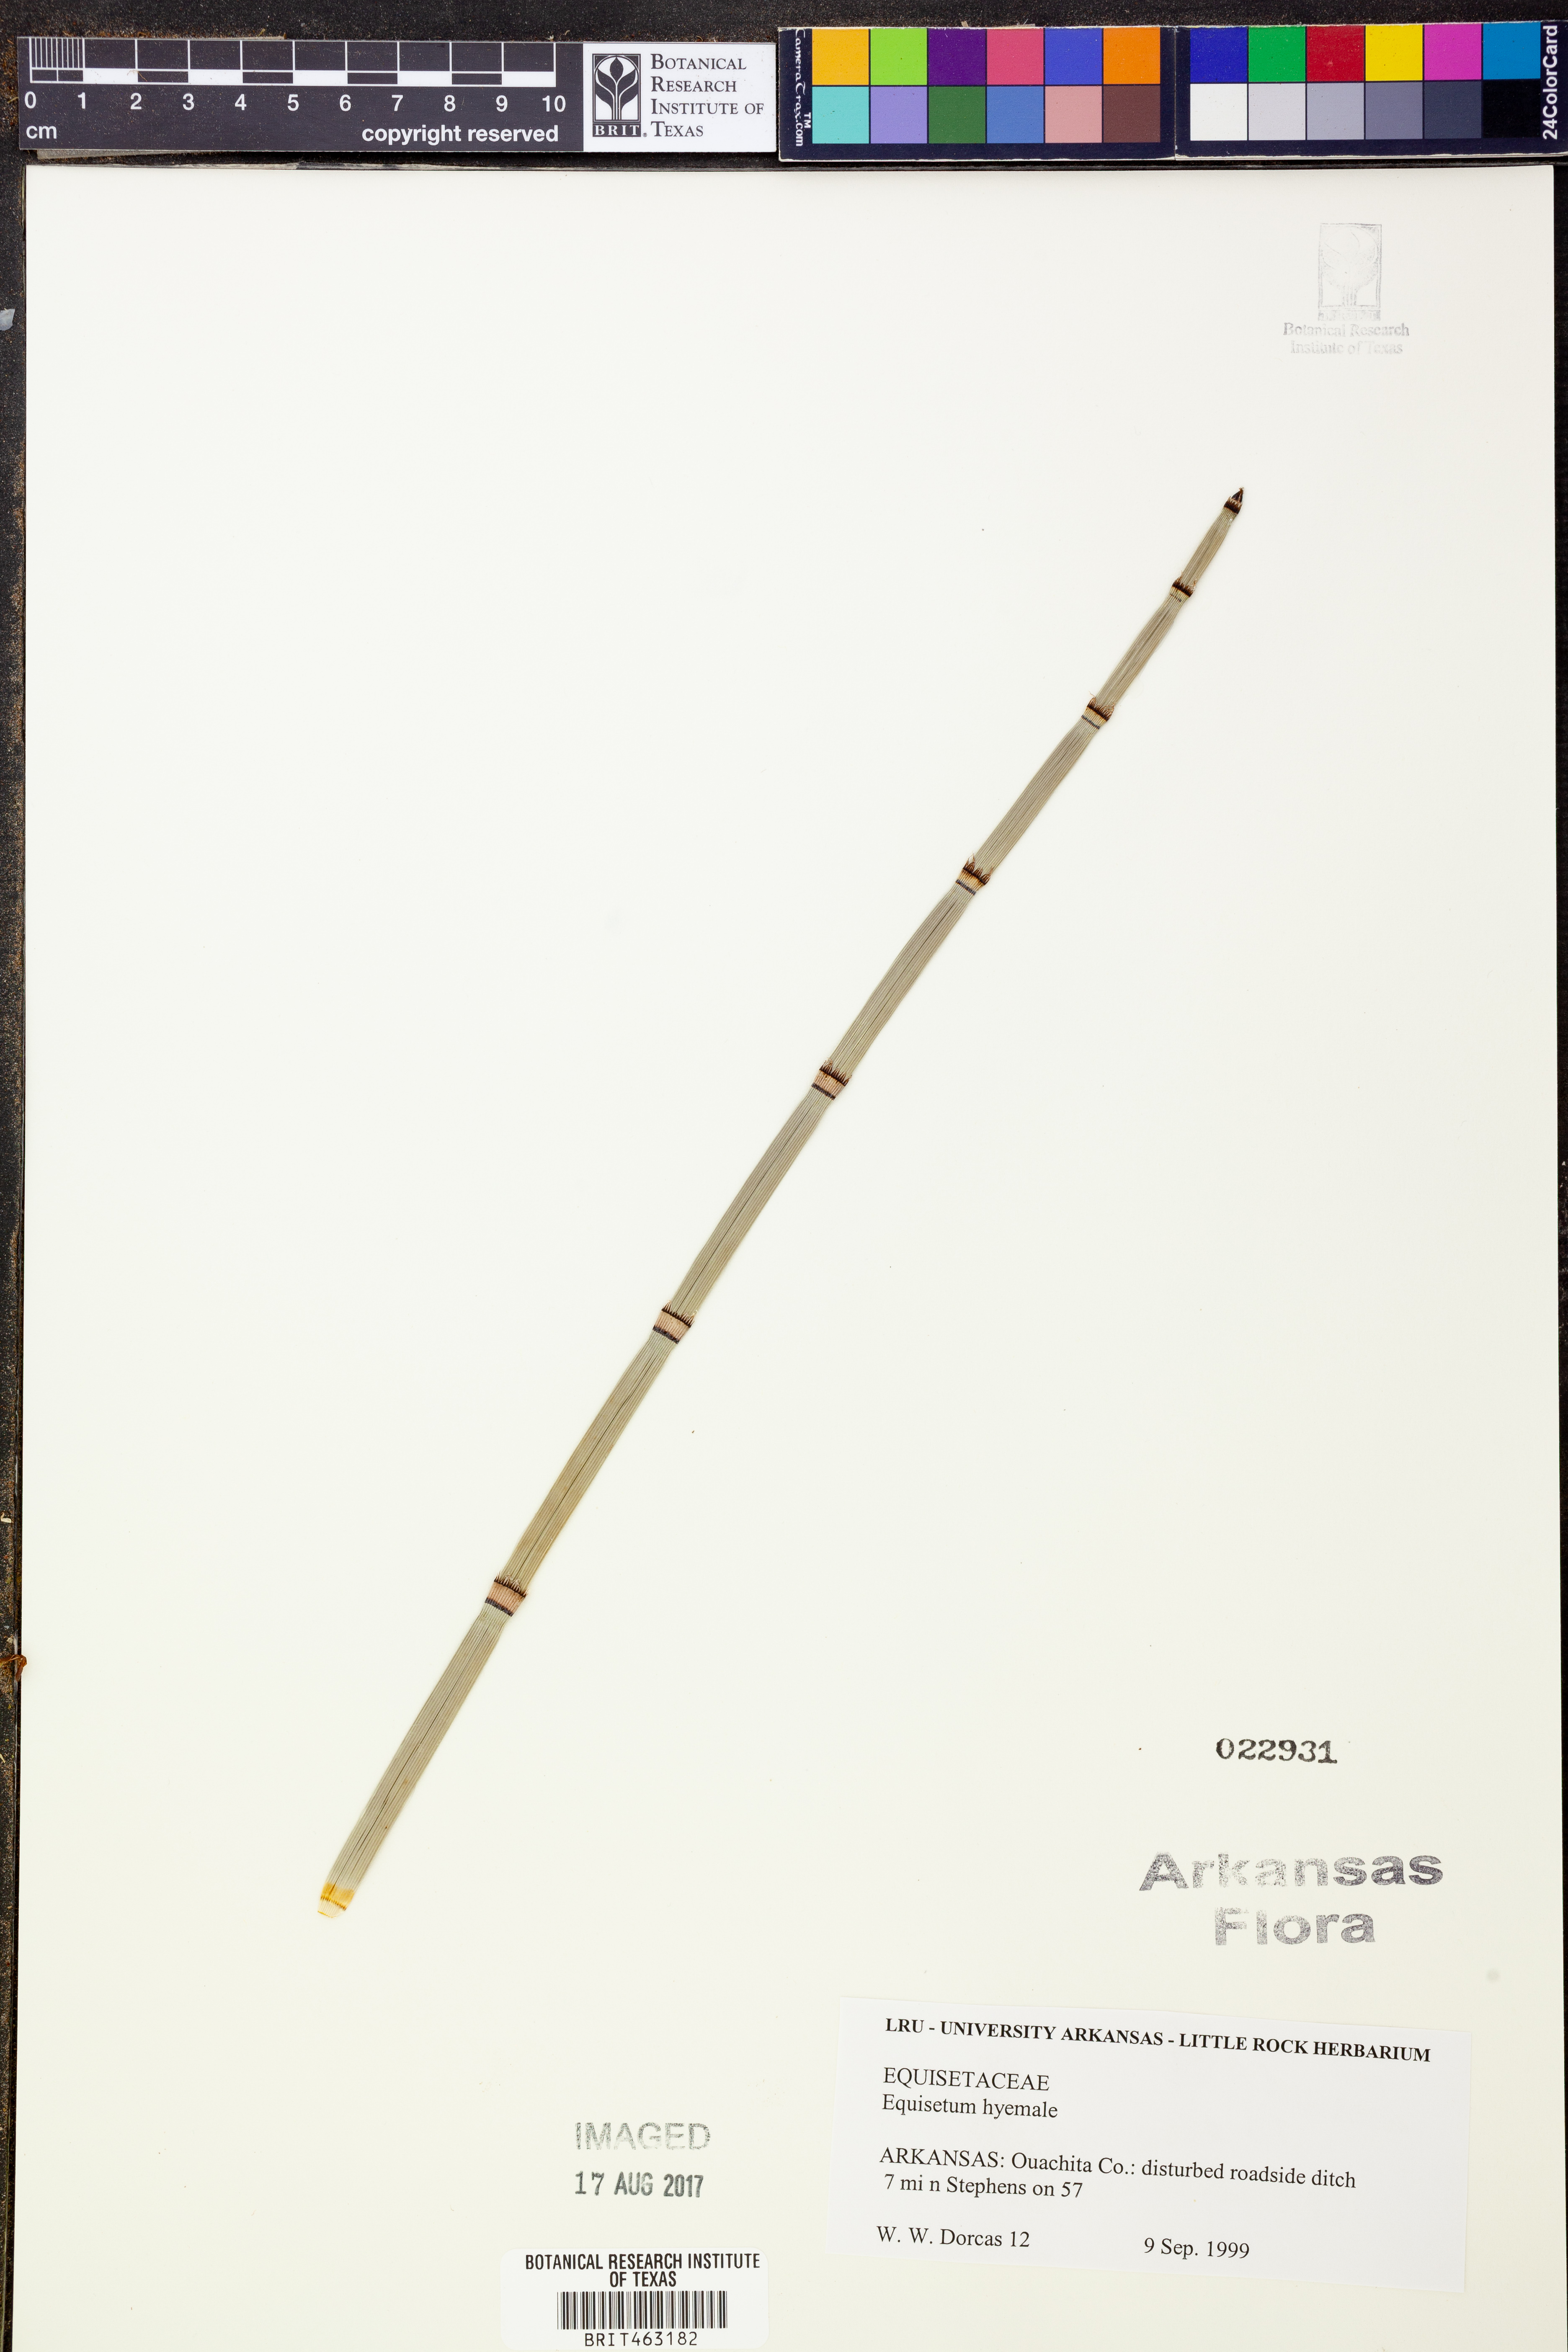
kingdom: Plantae
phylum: Tracheophyta
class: Polypodiopsida
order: Equisetales
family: Equisetaceae
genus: Equisetum
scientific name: Equisetum hyemale
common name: Rough horsetail
